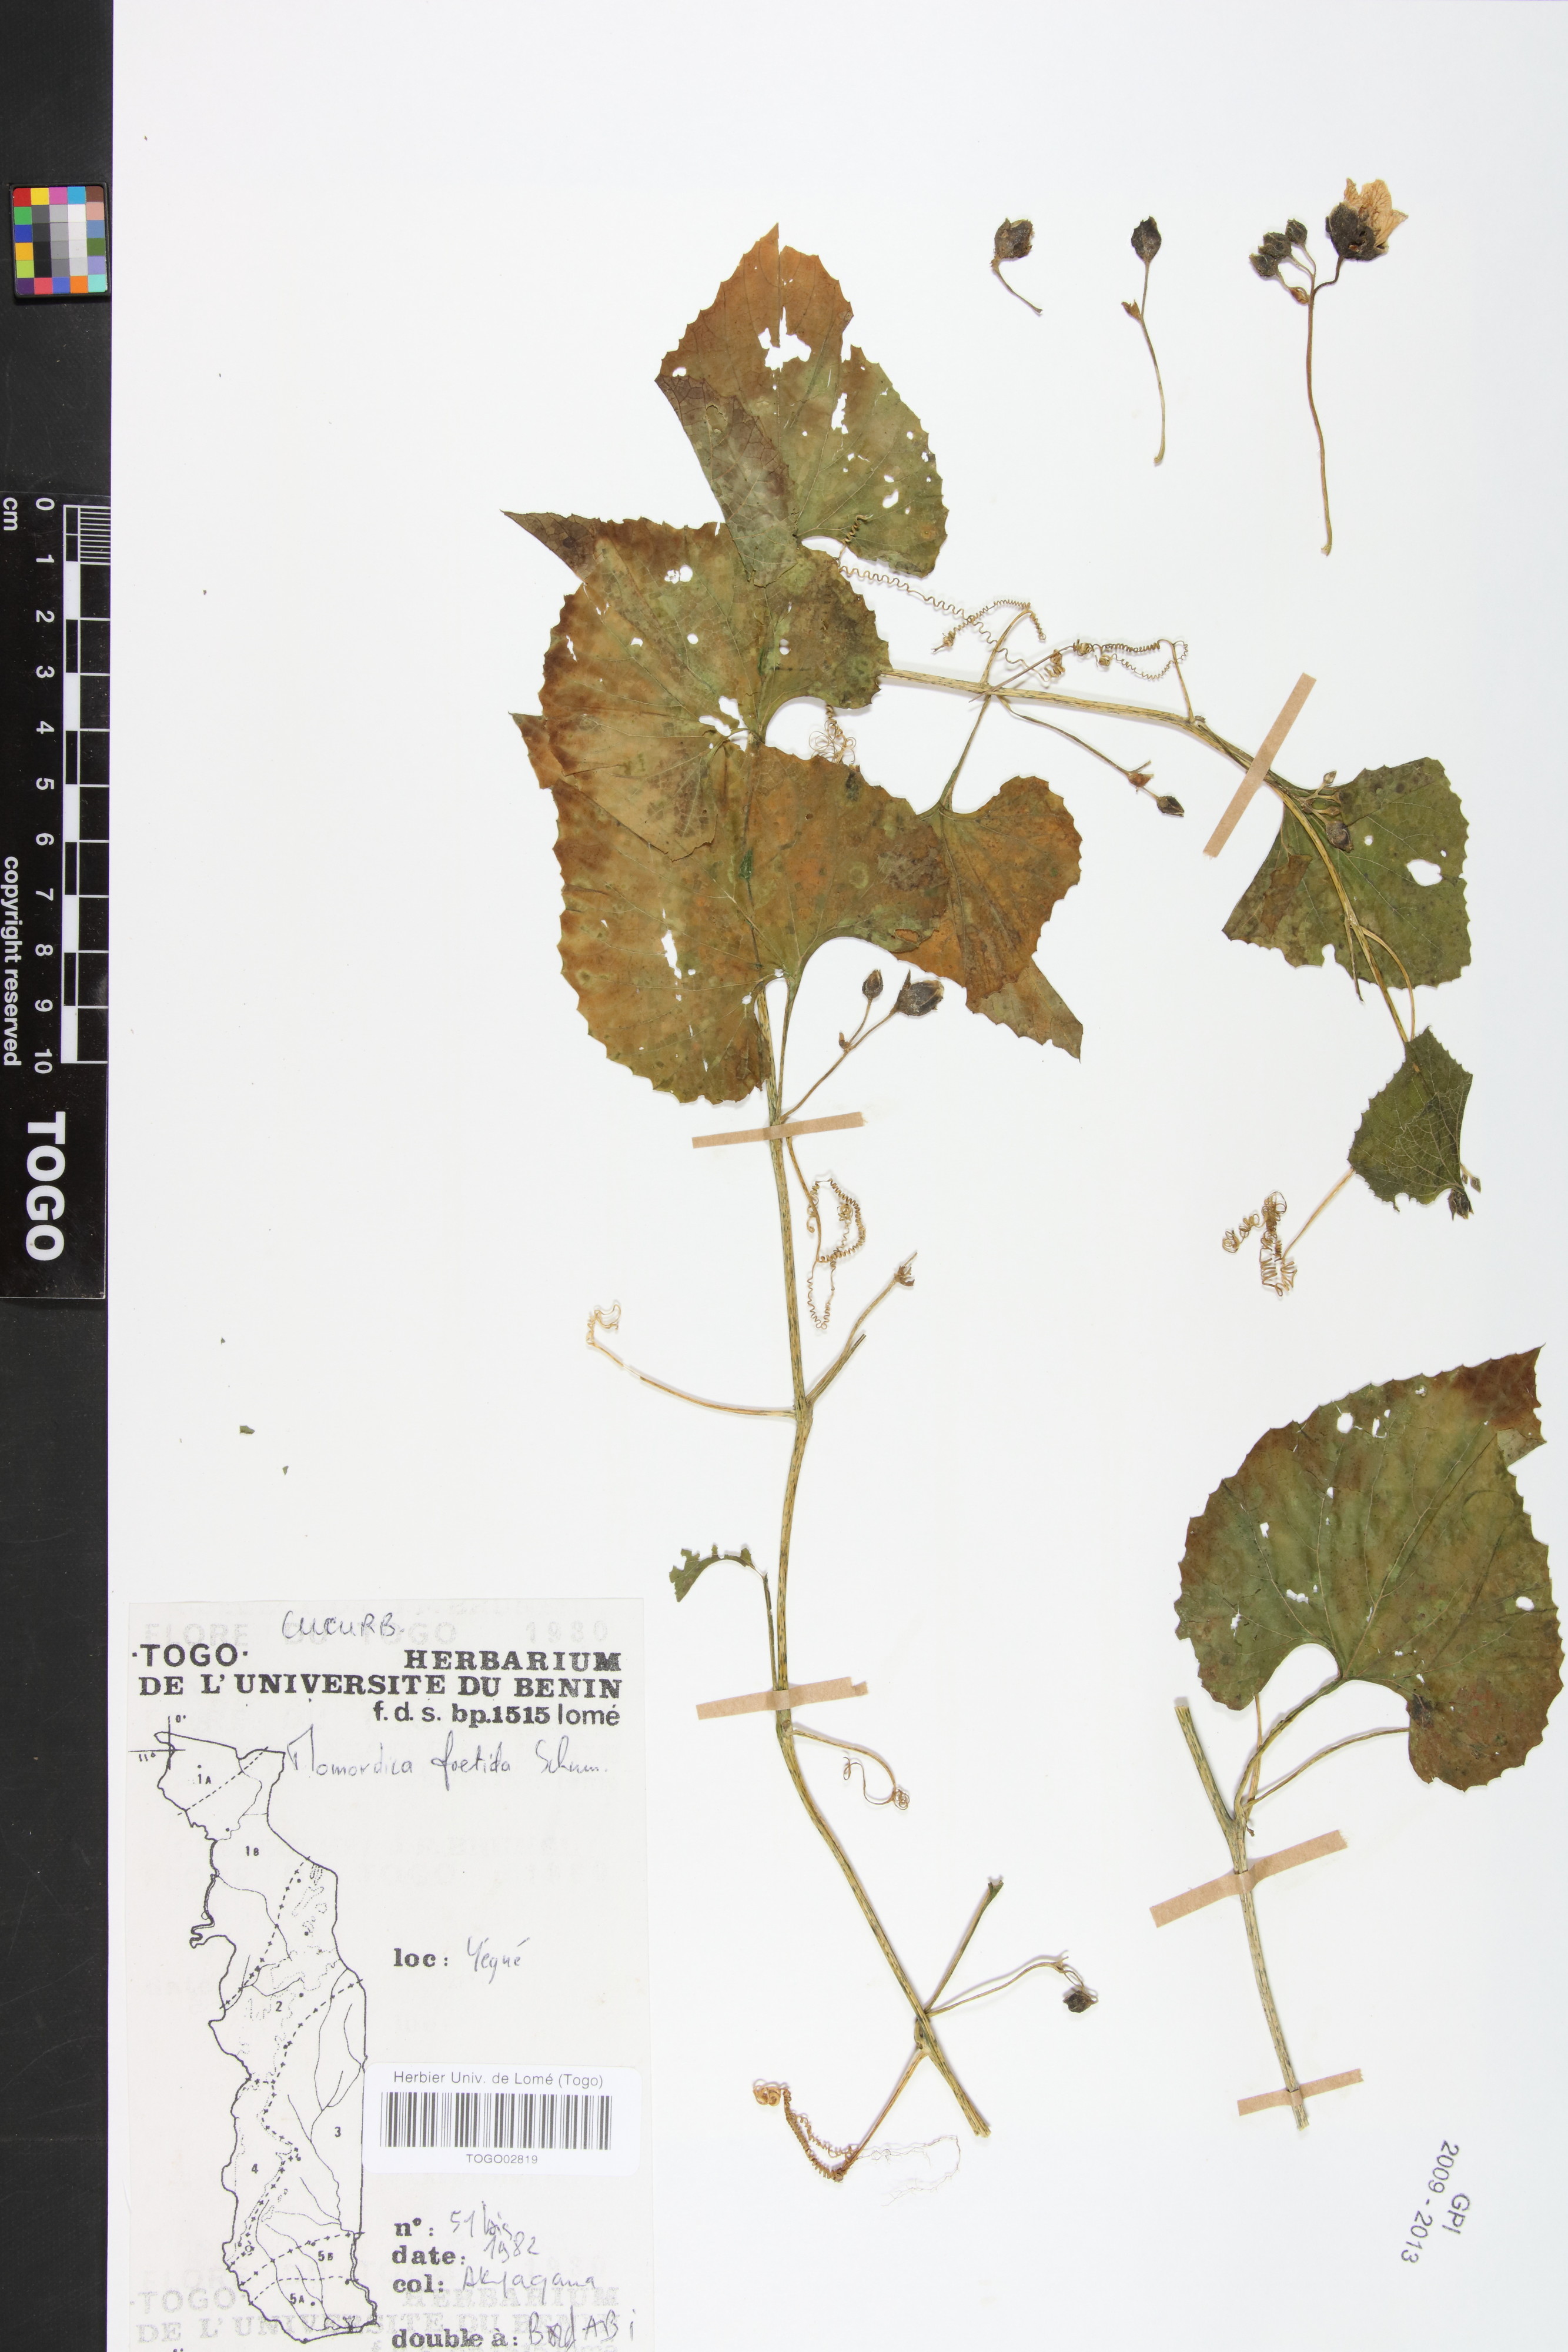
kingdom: Plantae
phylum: Tracheophyta
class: Magnoliopsida
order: Cucurbitales
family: Cucurbitaceae
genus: Momordica
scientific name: Momordica foetida
